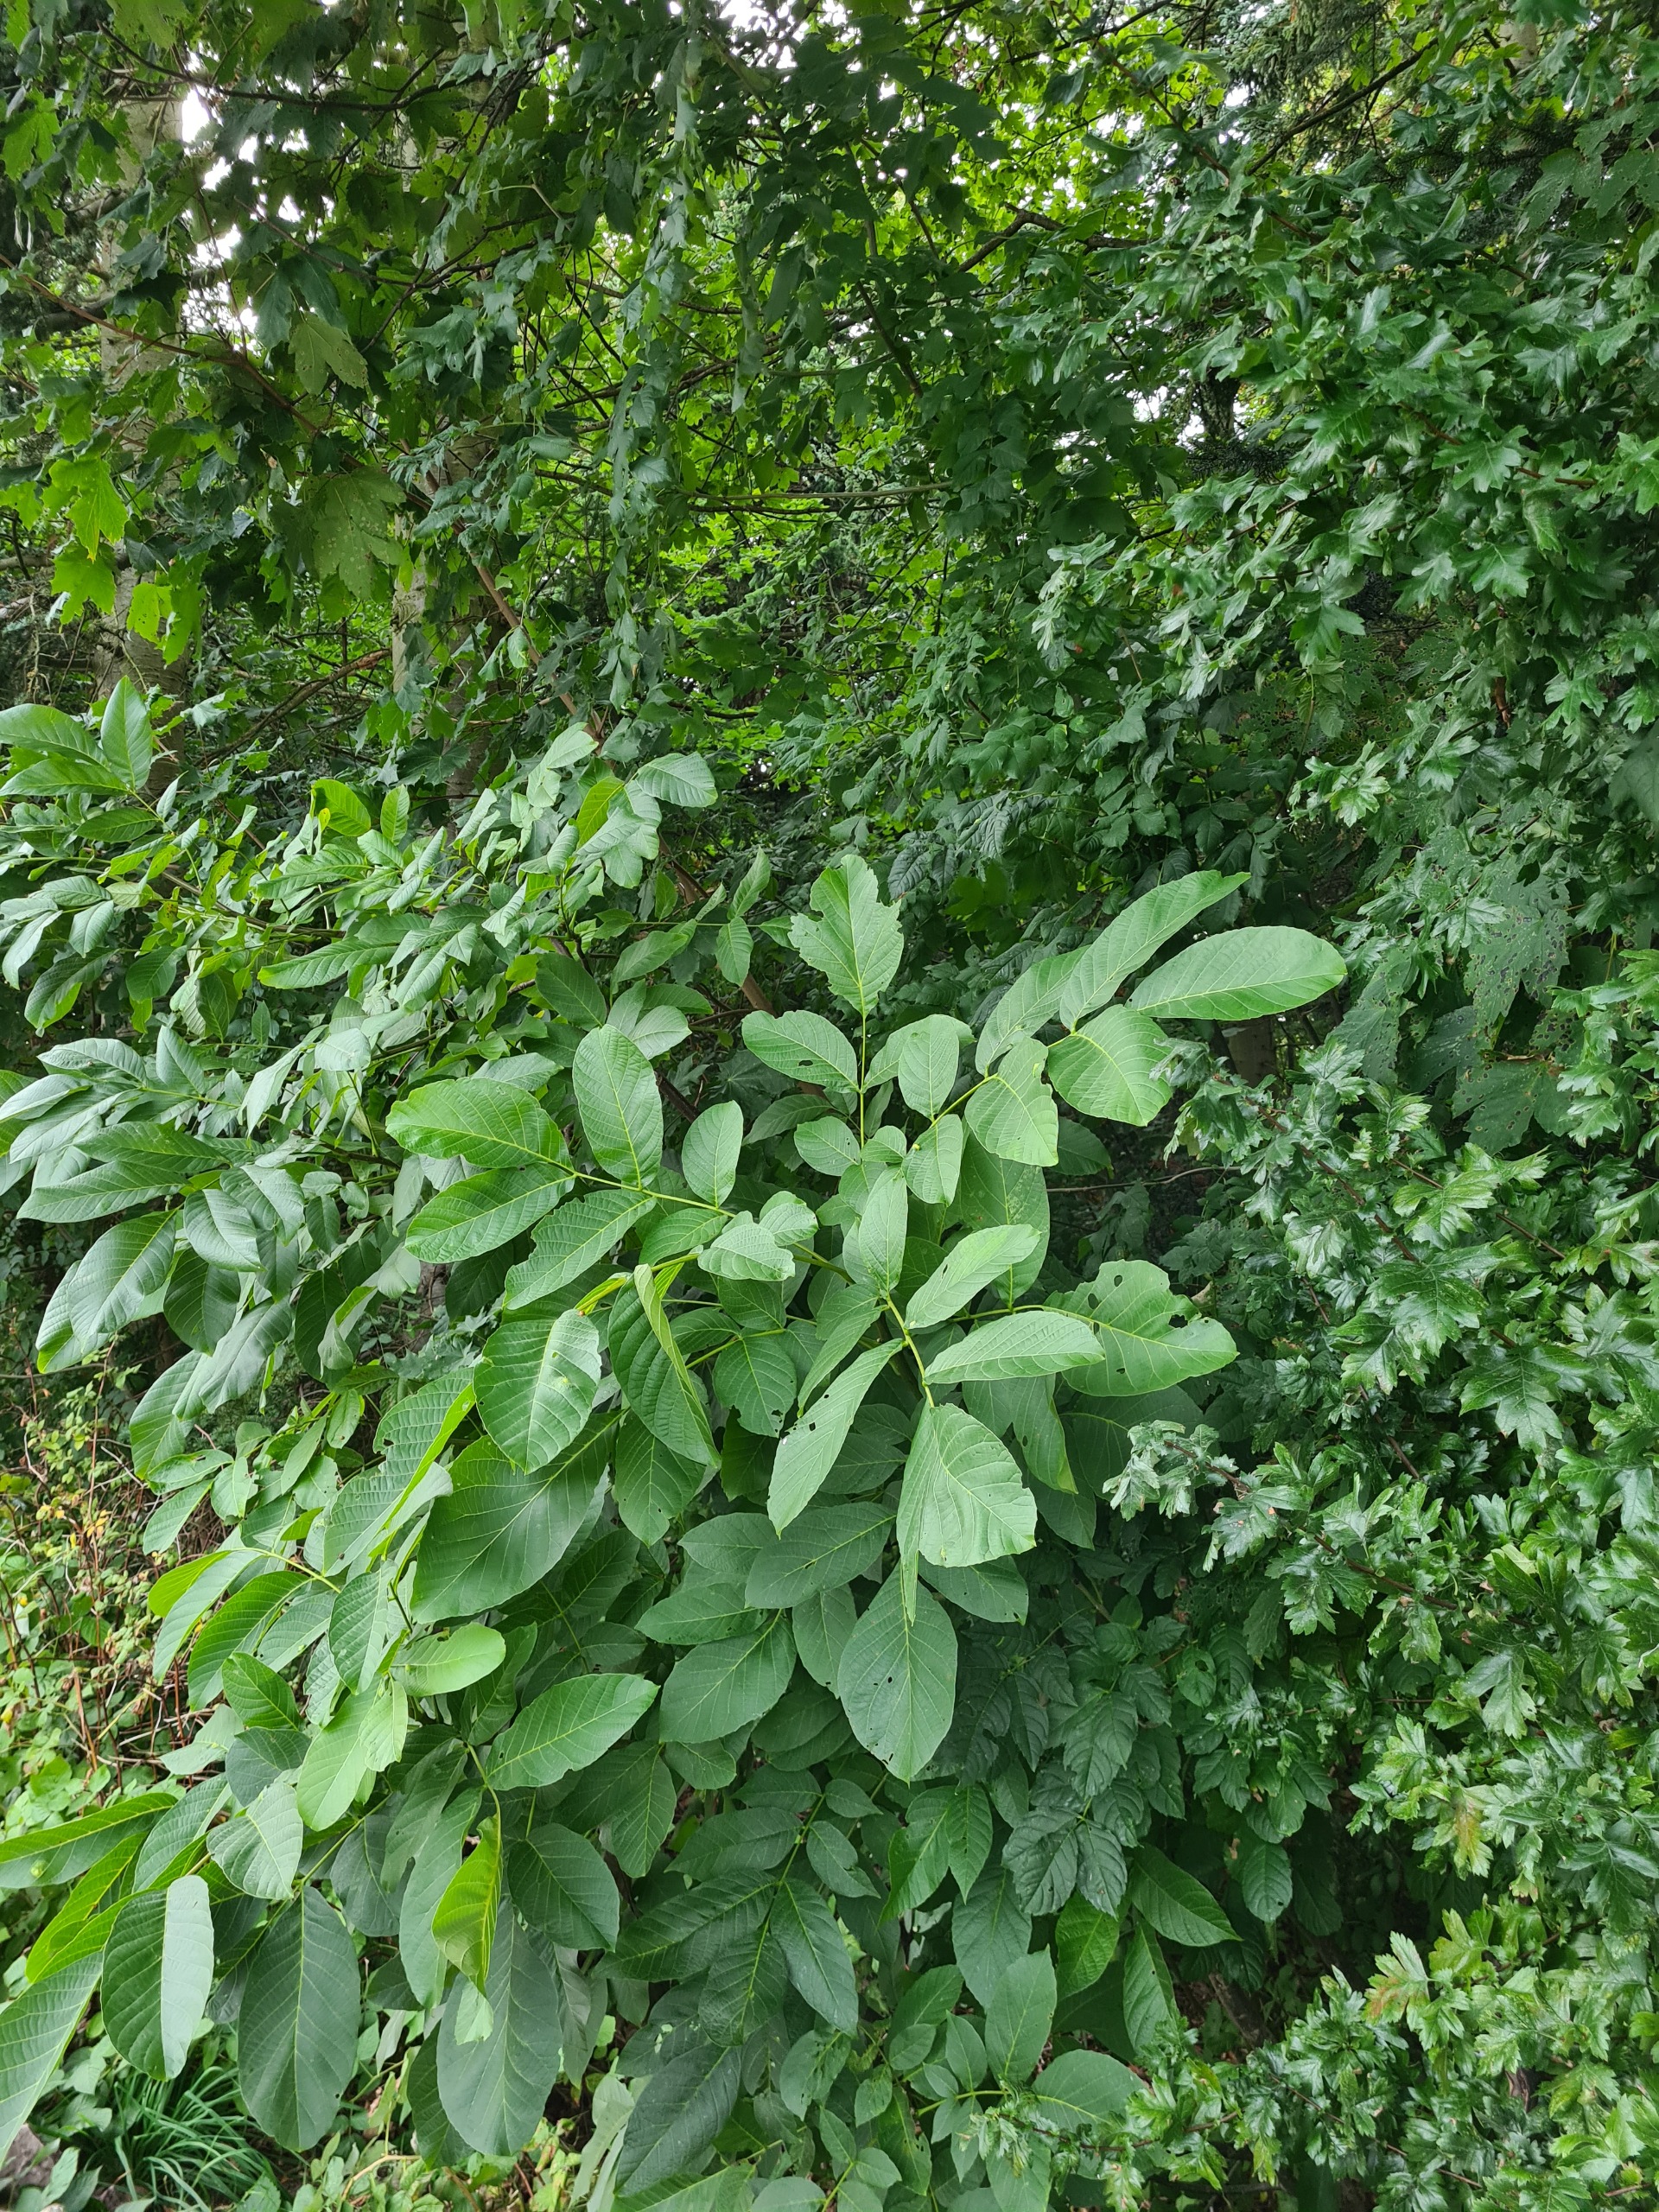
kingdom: Plantae
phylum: Tracheophyta
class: Magnoliopsida
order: Fagales
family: Juglandaceae
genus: Juglans
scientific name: Juglans regia
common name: Almindelig valnød
